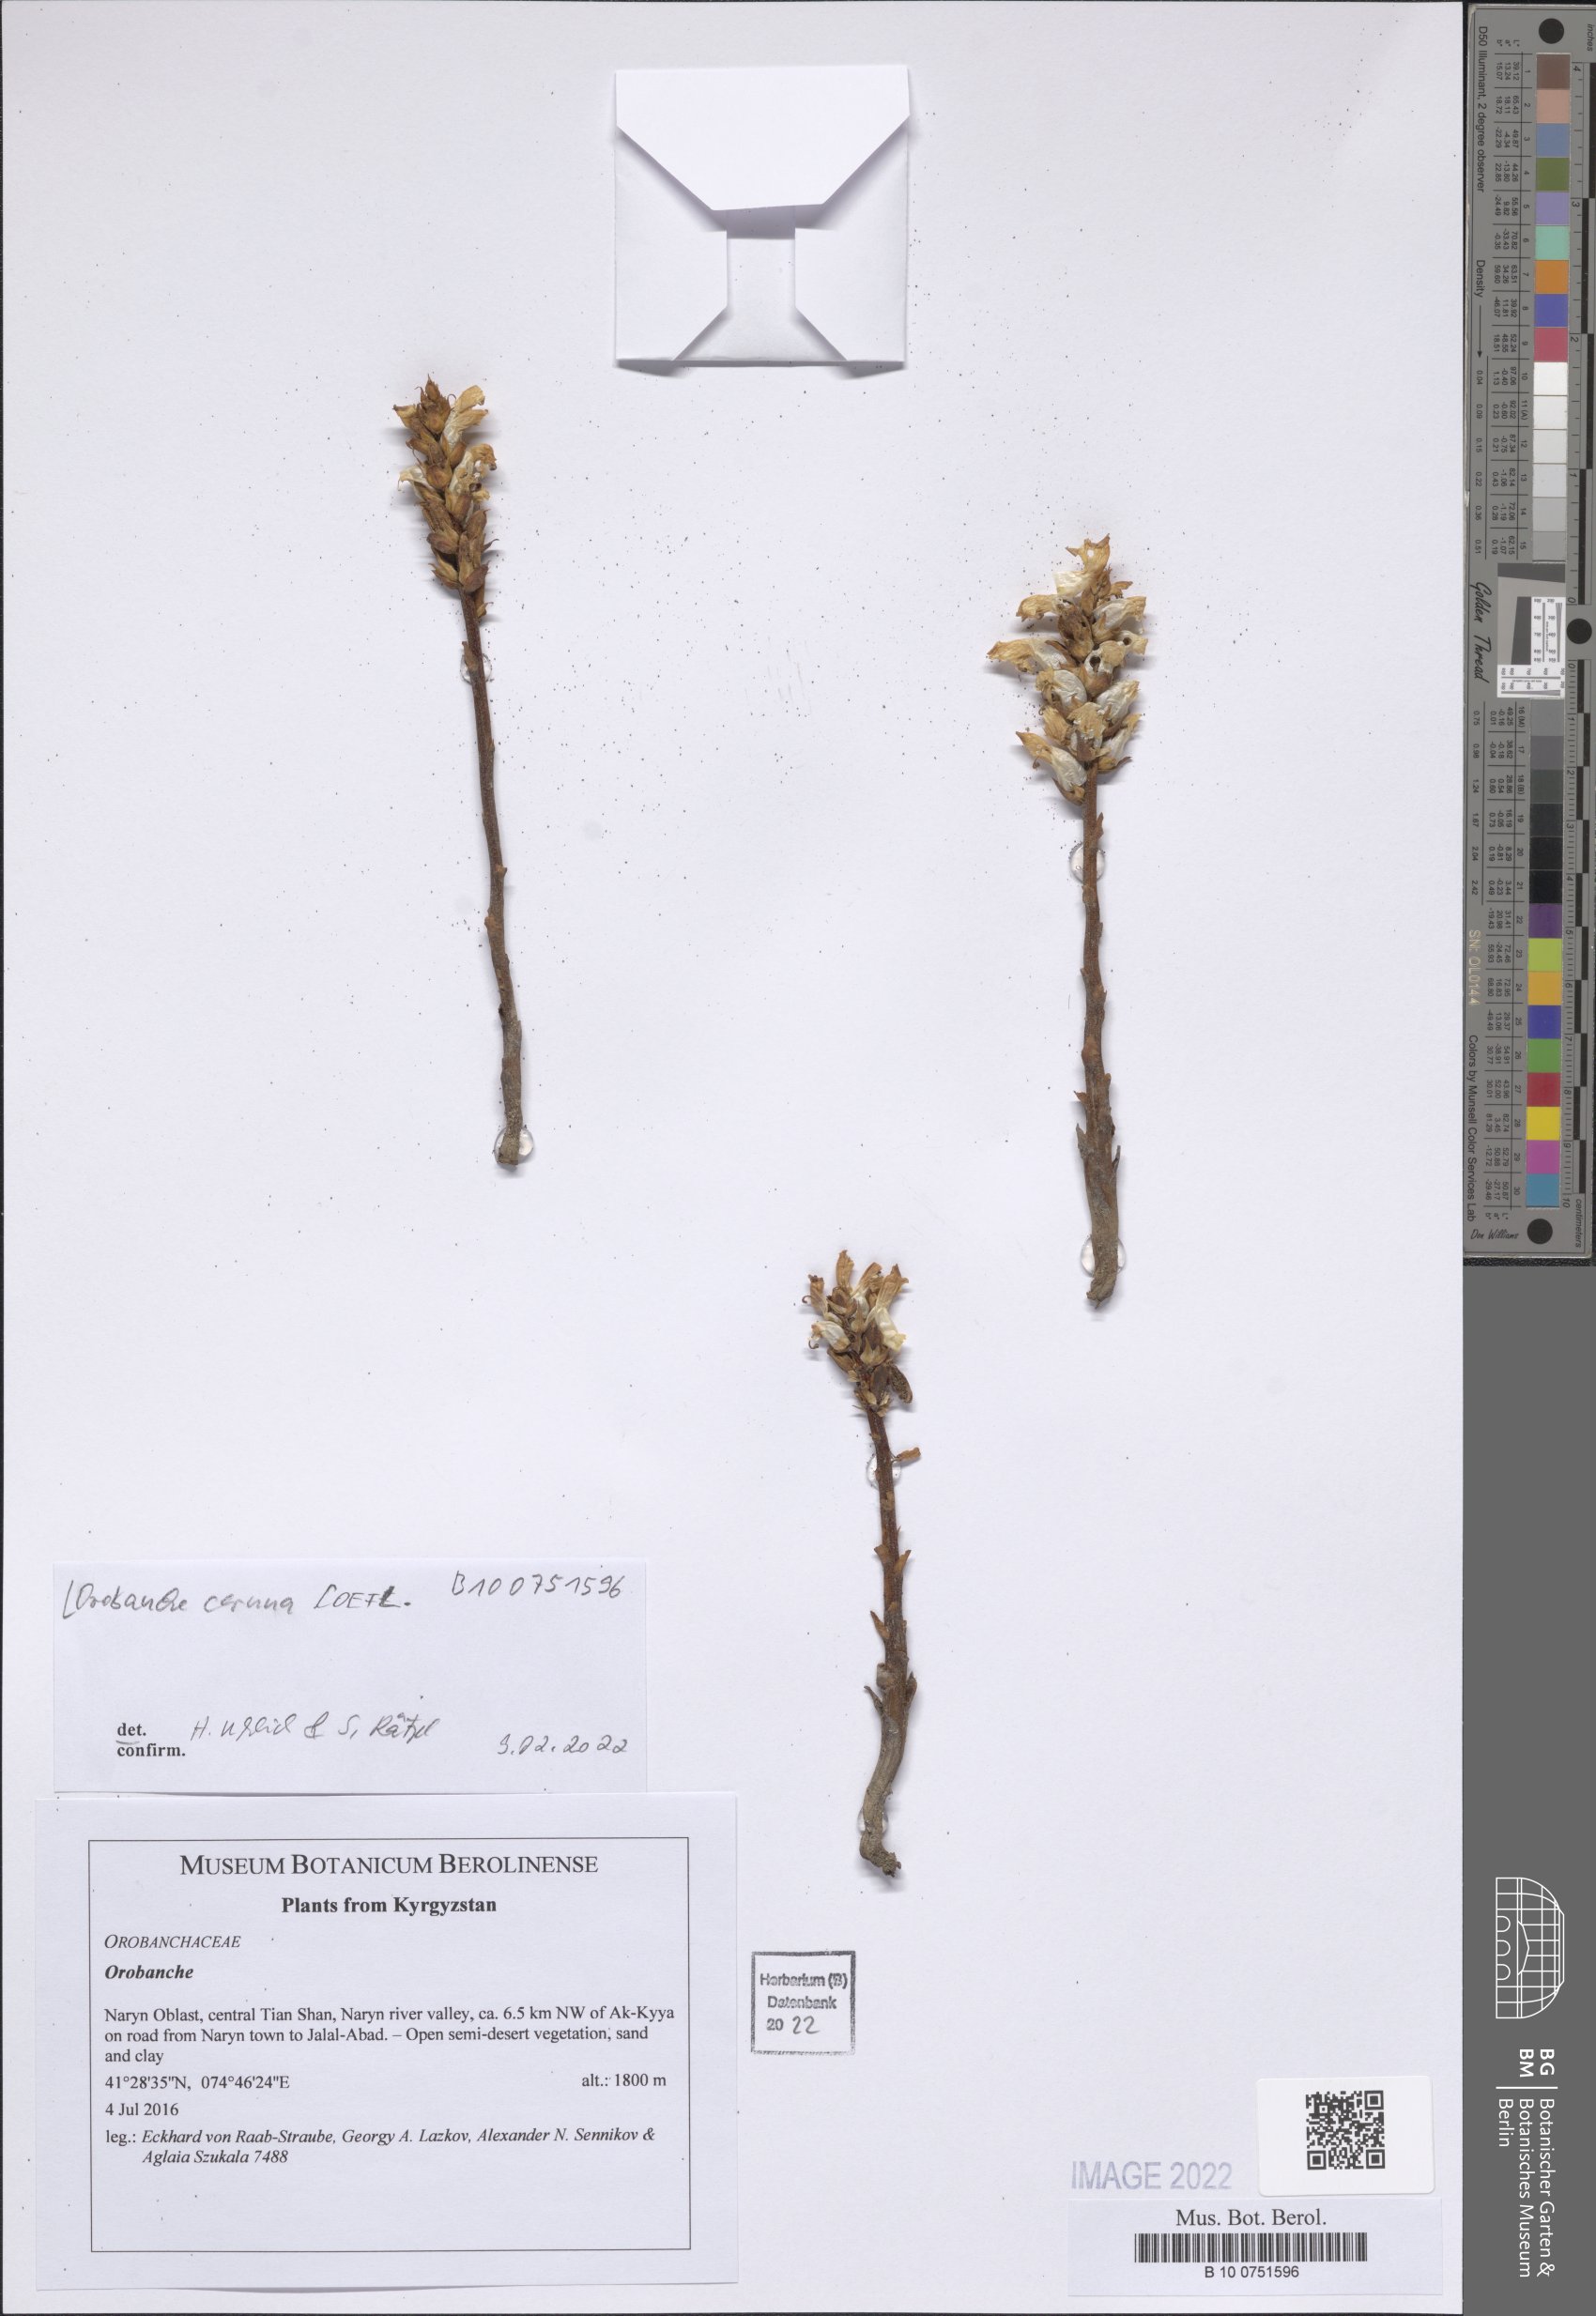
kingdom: Plantae
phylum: Tracheophyta
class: Magnoliopsida
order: Lamiales
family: Orobanchaceae
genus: Orobanche
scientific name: Orobanche cernua
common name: Australian broomrape
